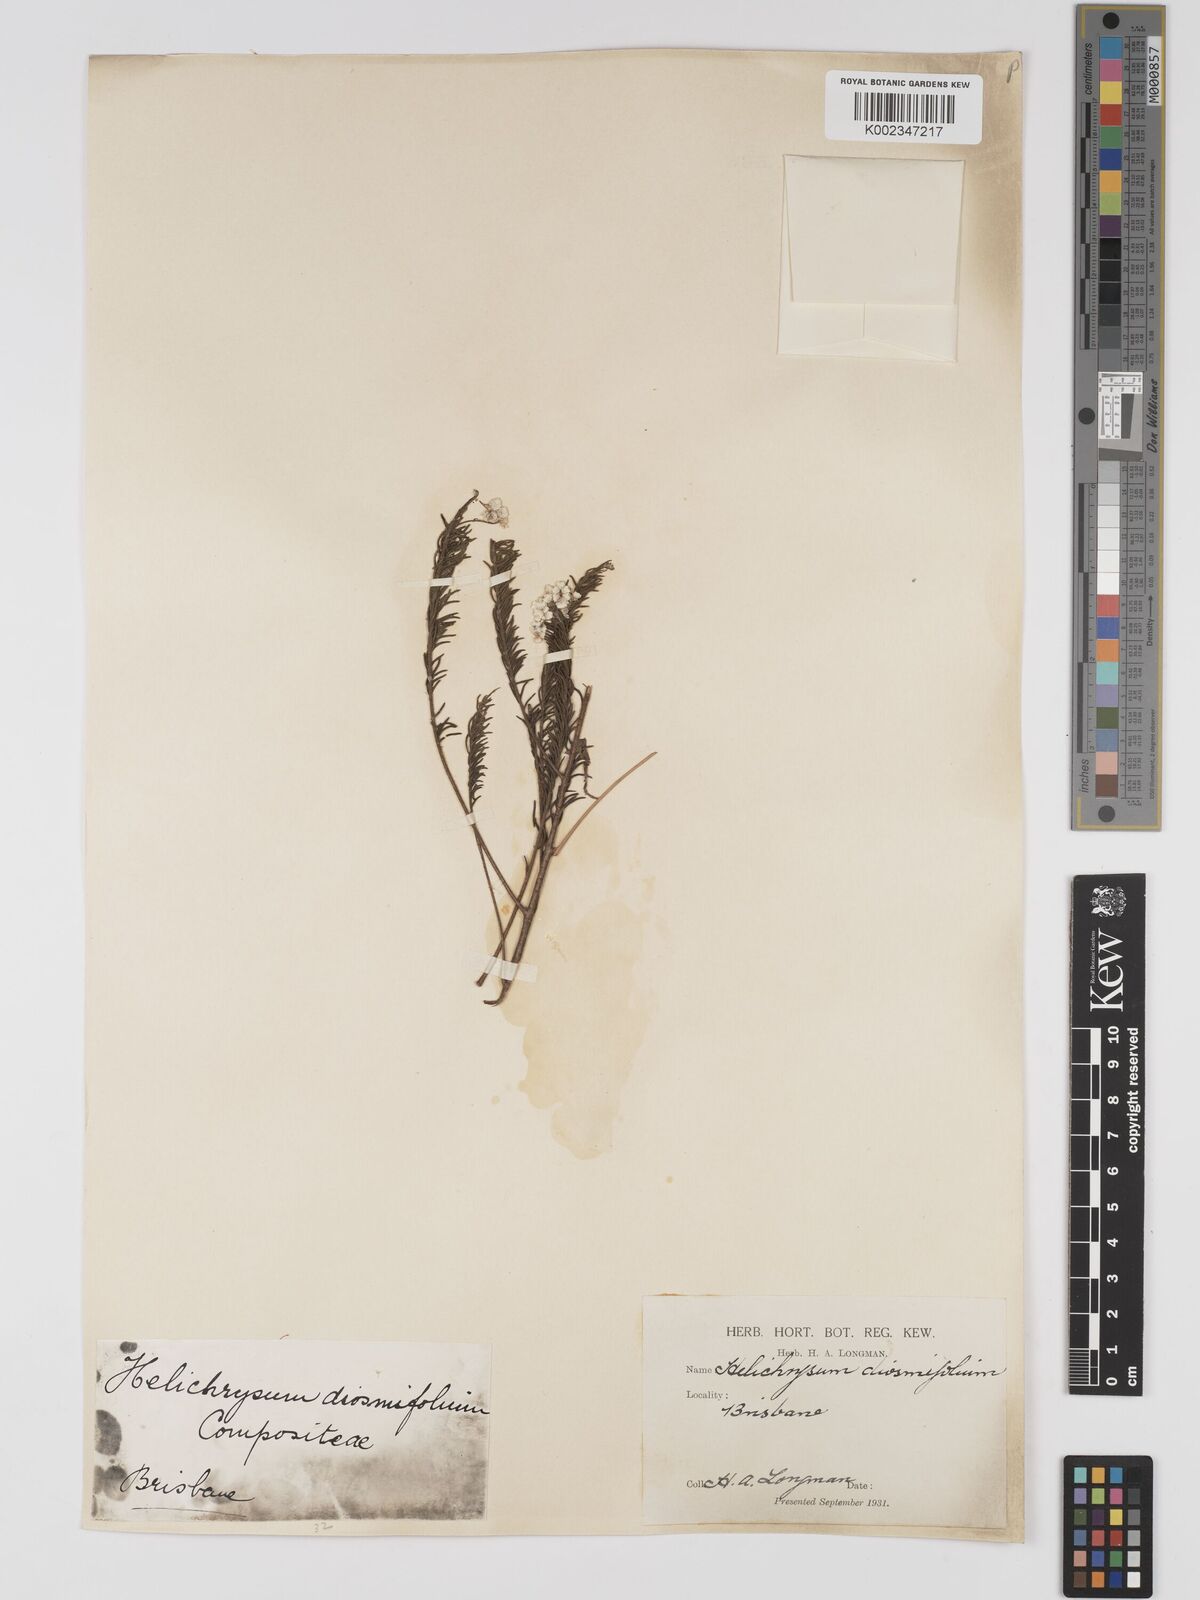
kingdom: Plantae
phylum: Tracheophyta
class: Magnoliopsida
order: Asterales
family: Asteraceae
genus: Ozothamnus
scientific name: Ozothamnus diosmifolius
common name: White-dogwood
